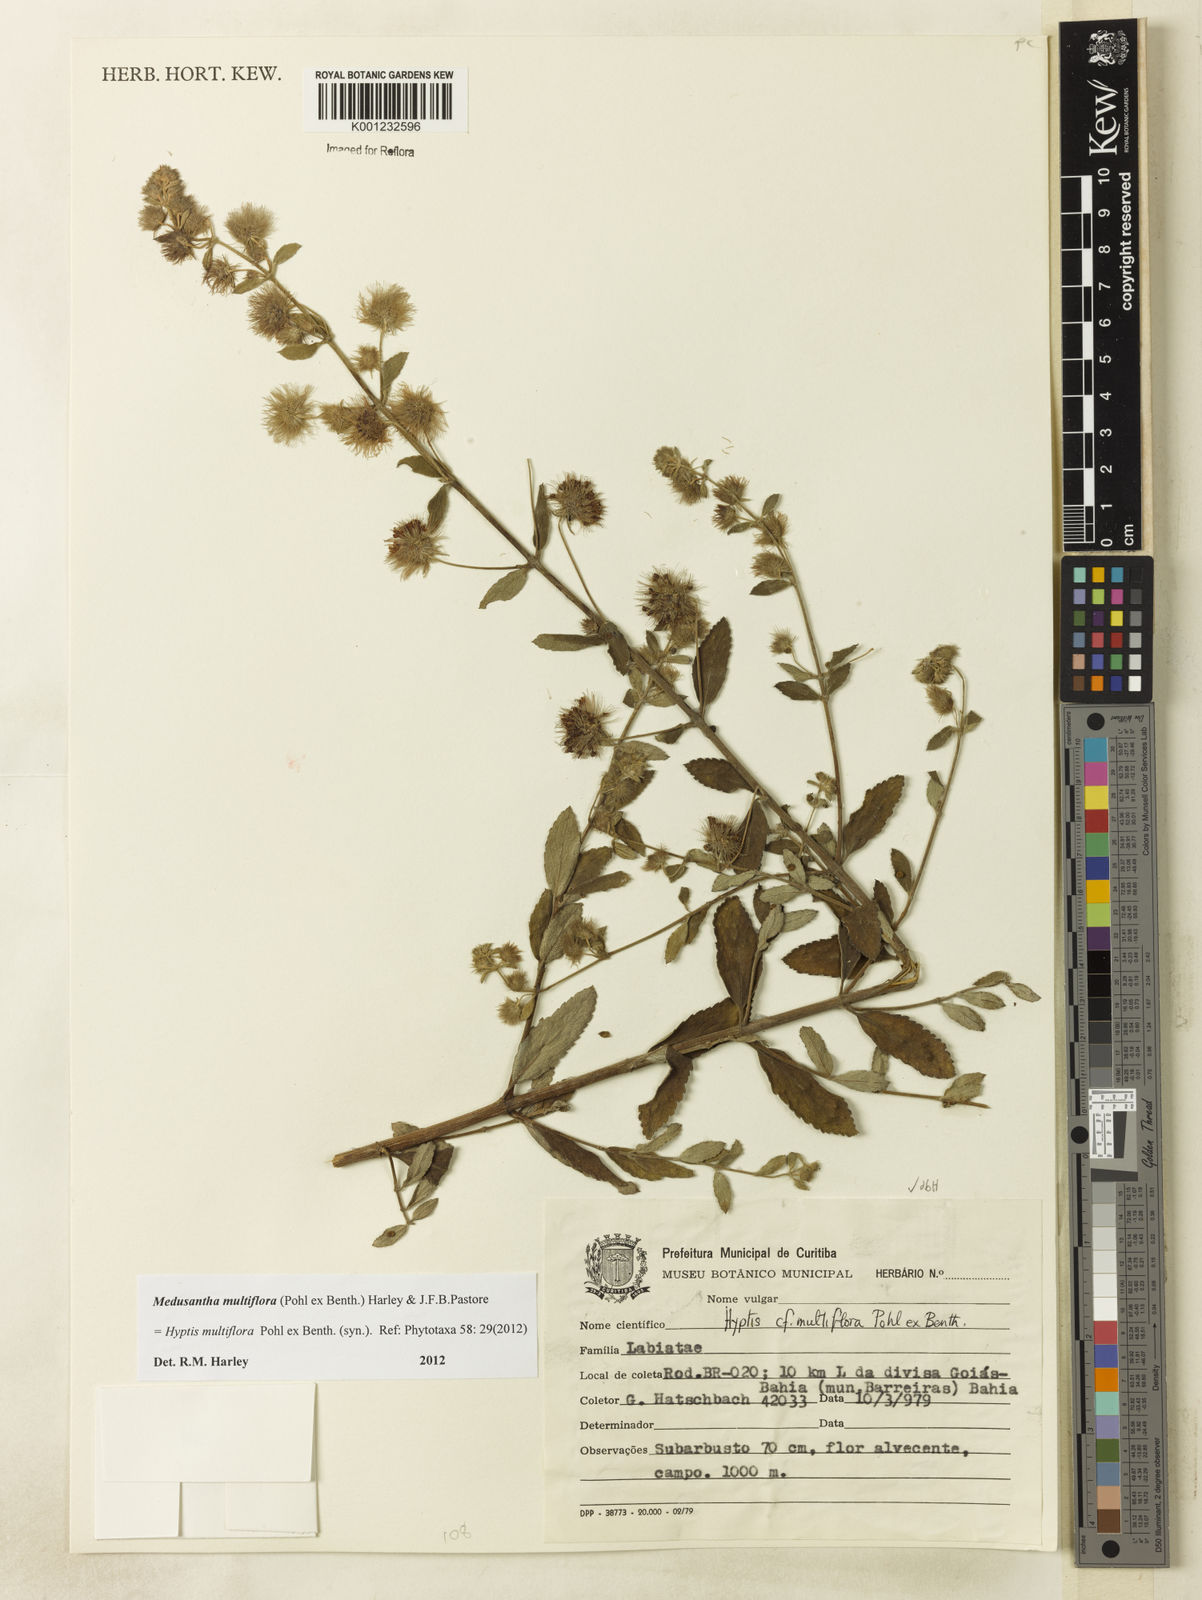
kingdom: Plantae
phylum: Tracheophyta
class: Magnoliopsida
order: Lamiales
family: Lamiaceae
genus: Medusantha
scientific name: Medusantha multiflora
